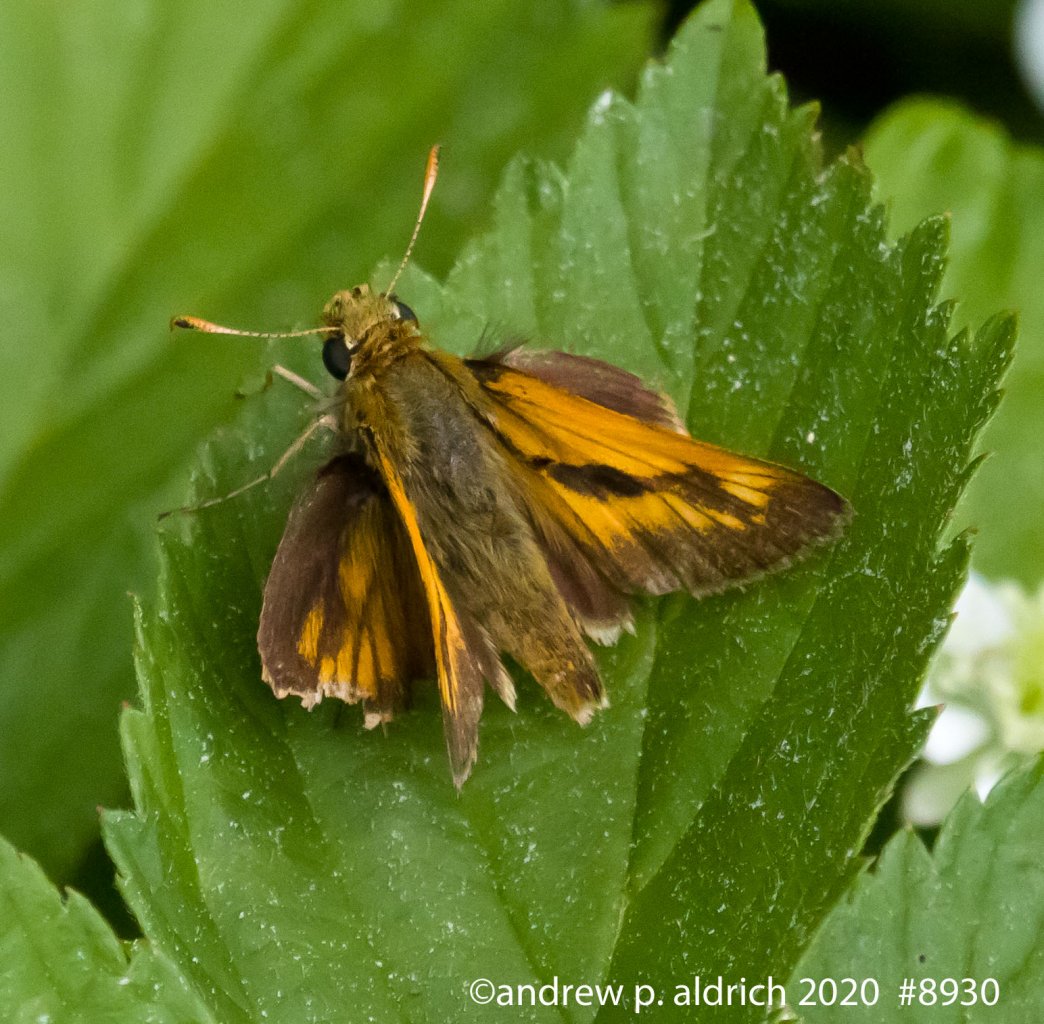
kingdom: Animalia
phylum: Arthropoda
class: Insecta
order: Lepidoptera
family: Hesperiidae
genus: Polites
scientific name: Polites
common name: Long Dash Skipper
